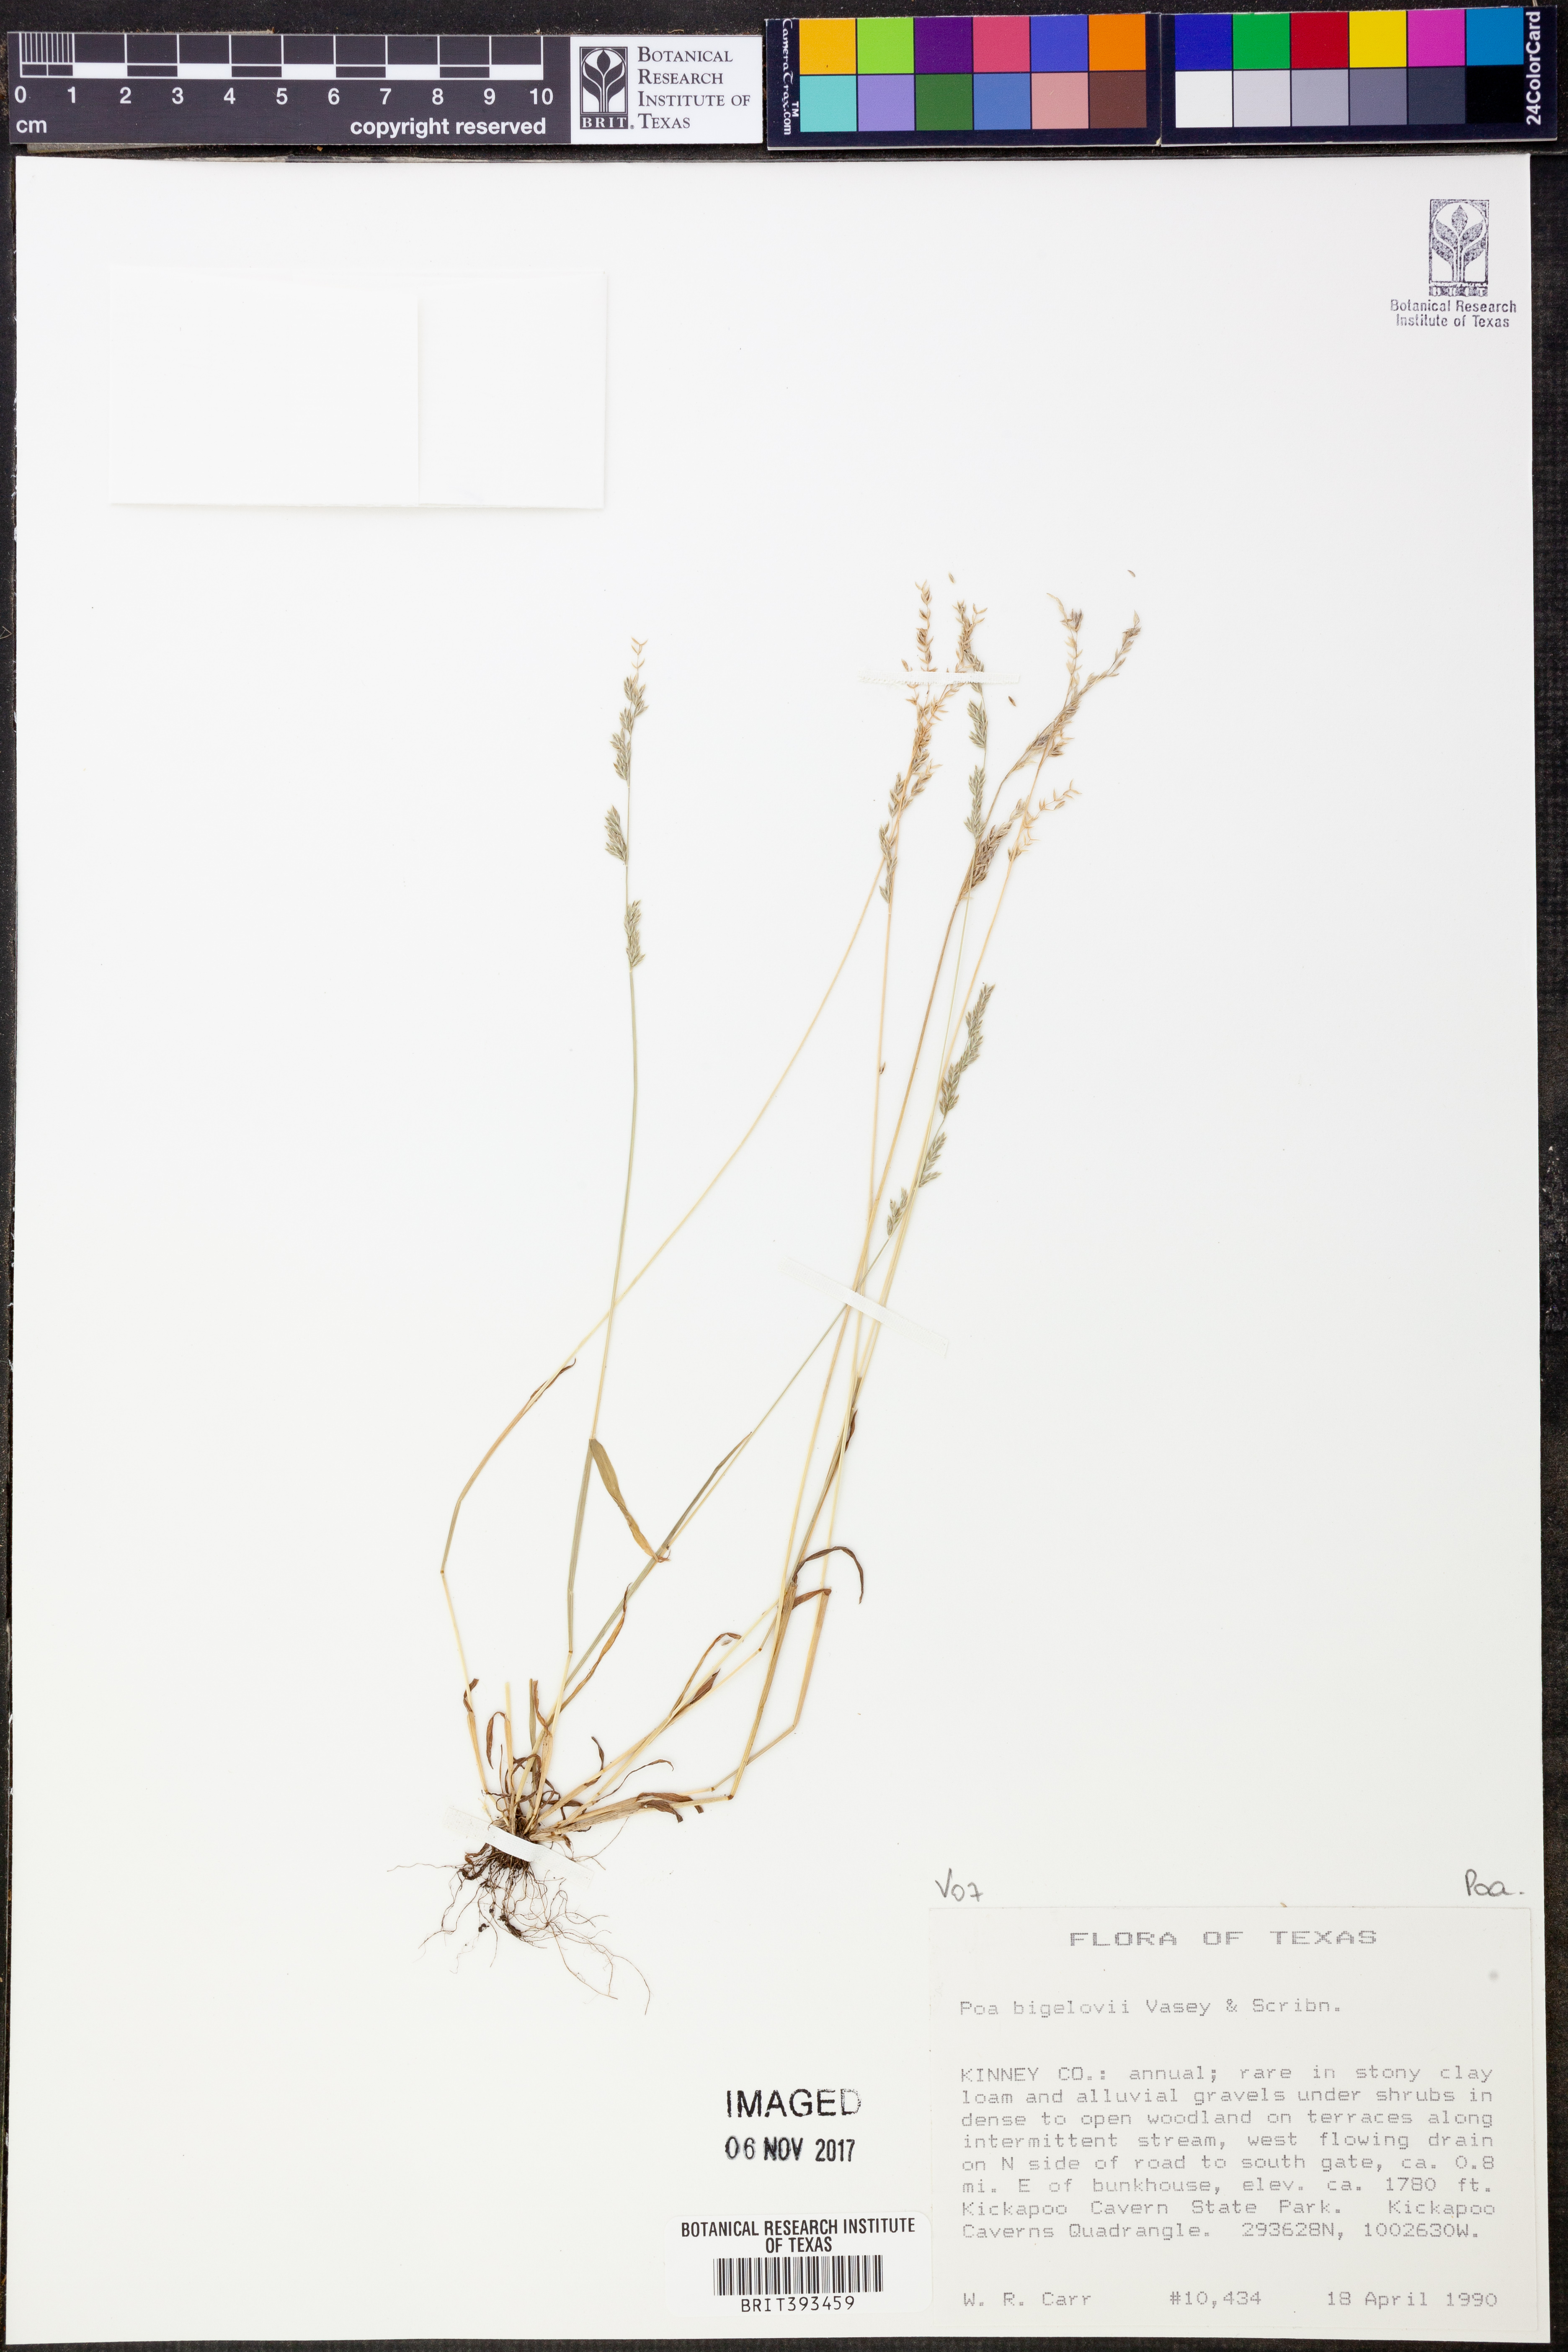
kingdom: Plantae
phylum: Tracheophyta
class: Liliopsida
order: Poales
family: Poaceae
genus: Poa
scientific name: Poa bigelovii
